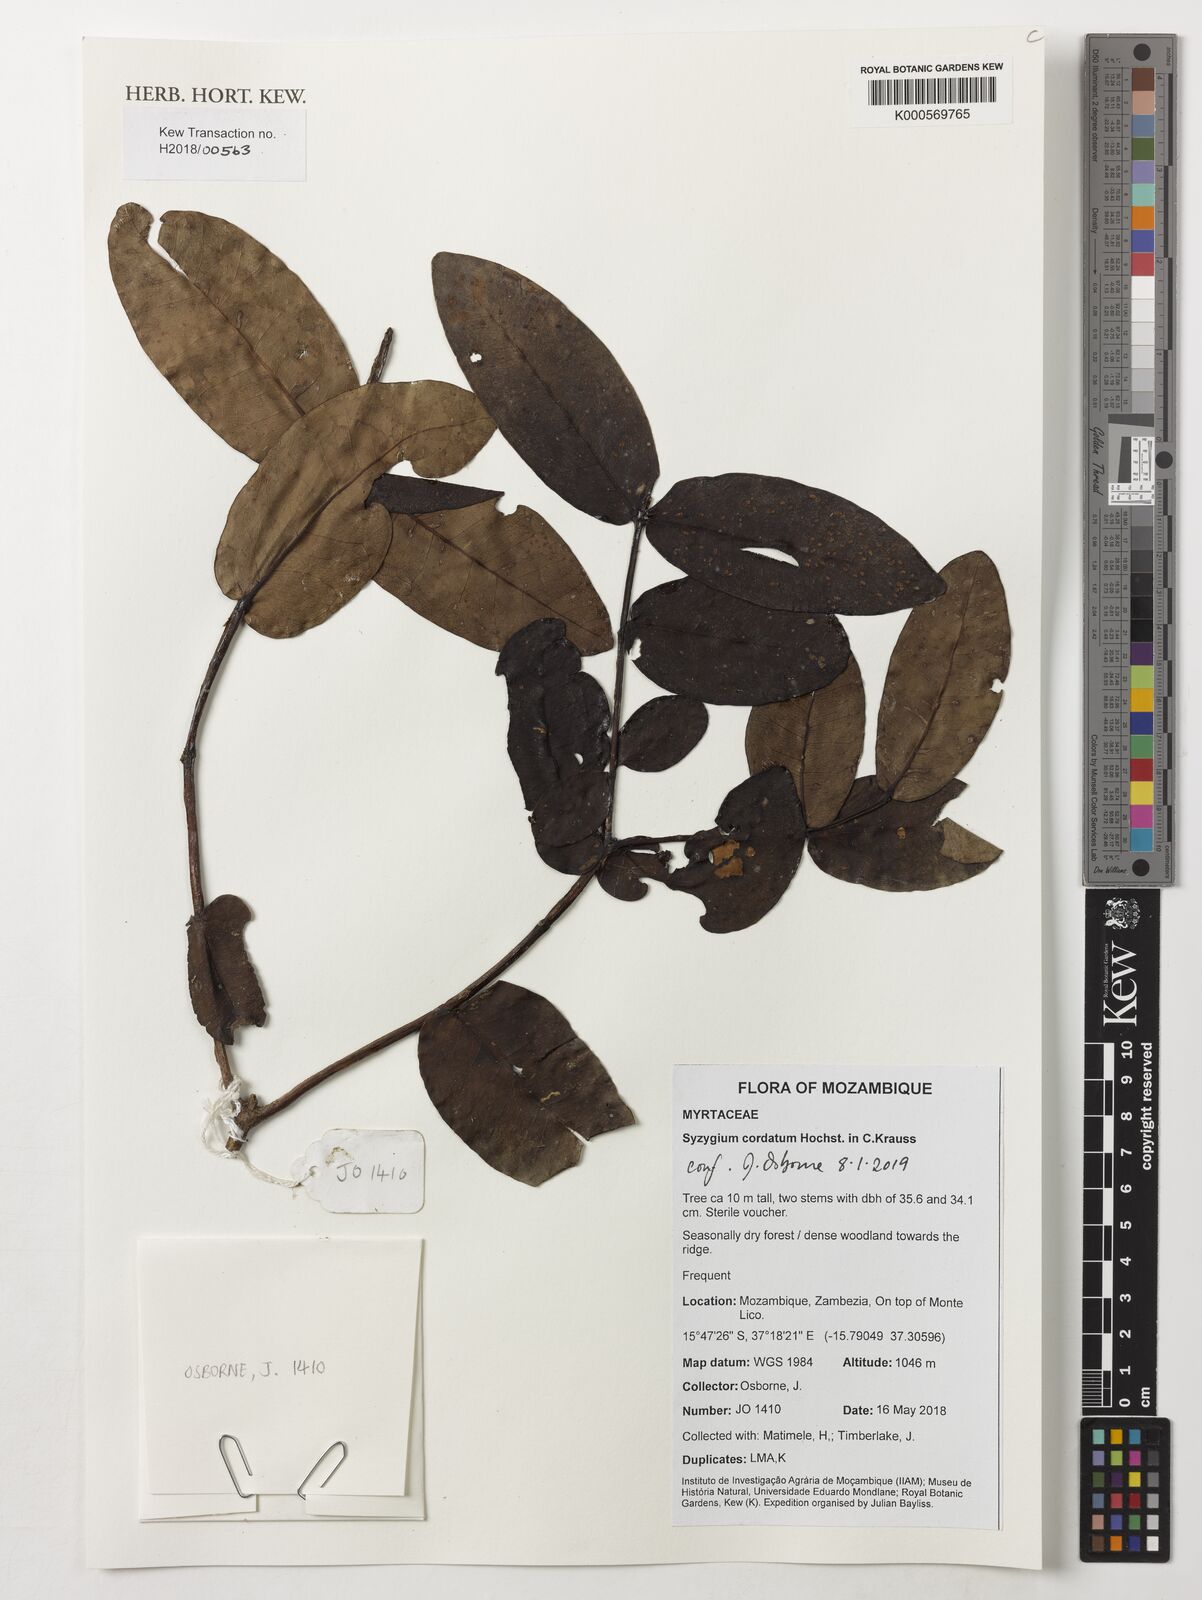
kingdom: Plantae
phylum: Tracheophyta
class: Magnoliopsida
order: Myrtales
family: Myrtaceae
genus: Syzygium
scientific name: Syzygium cordatum
